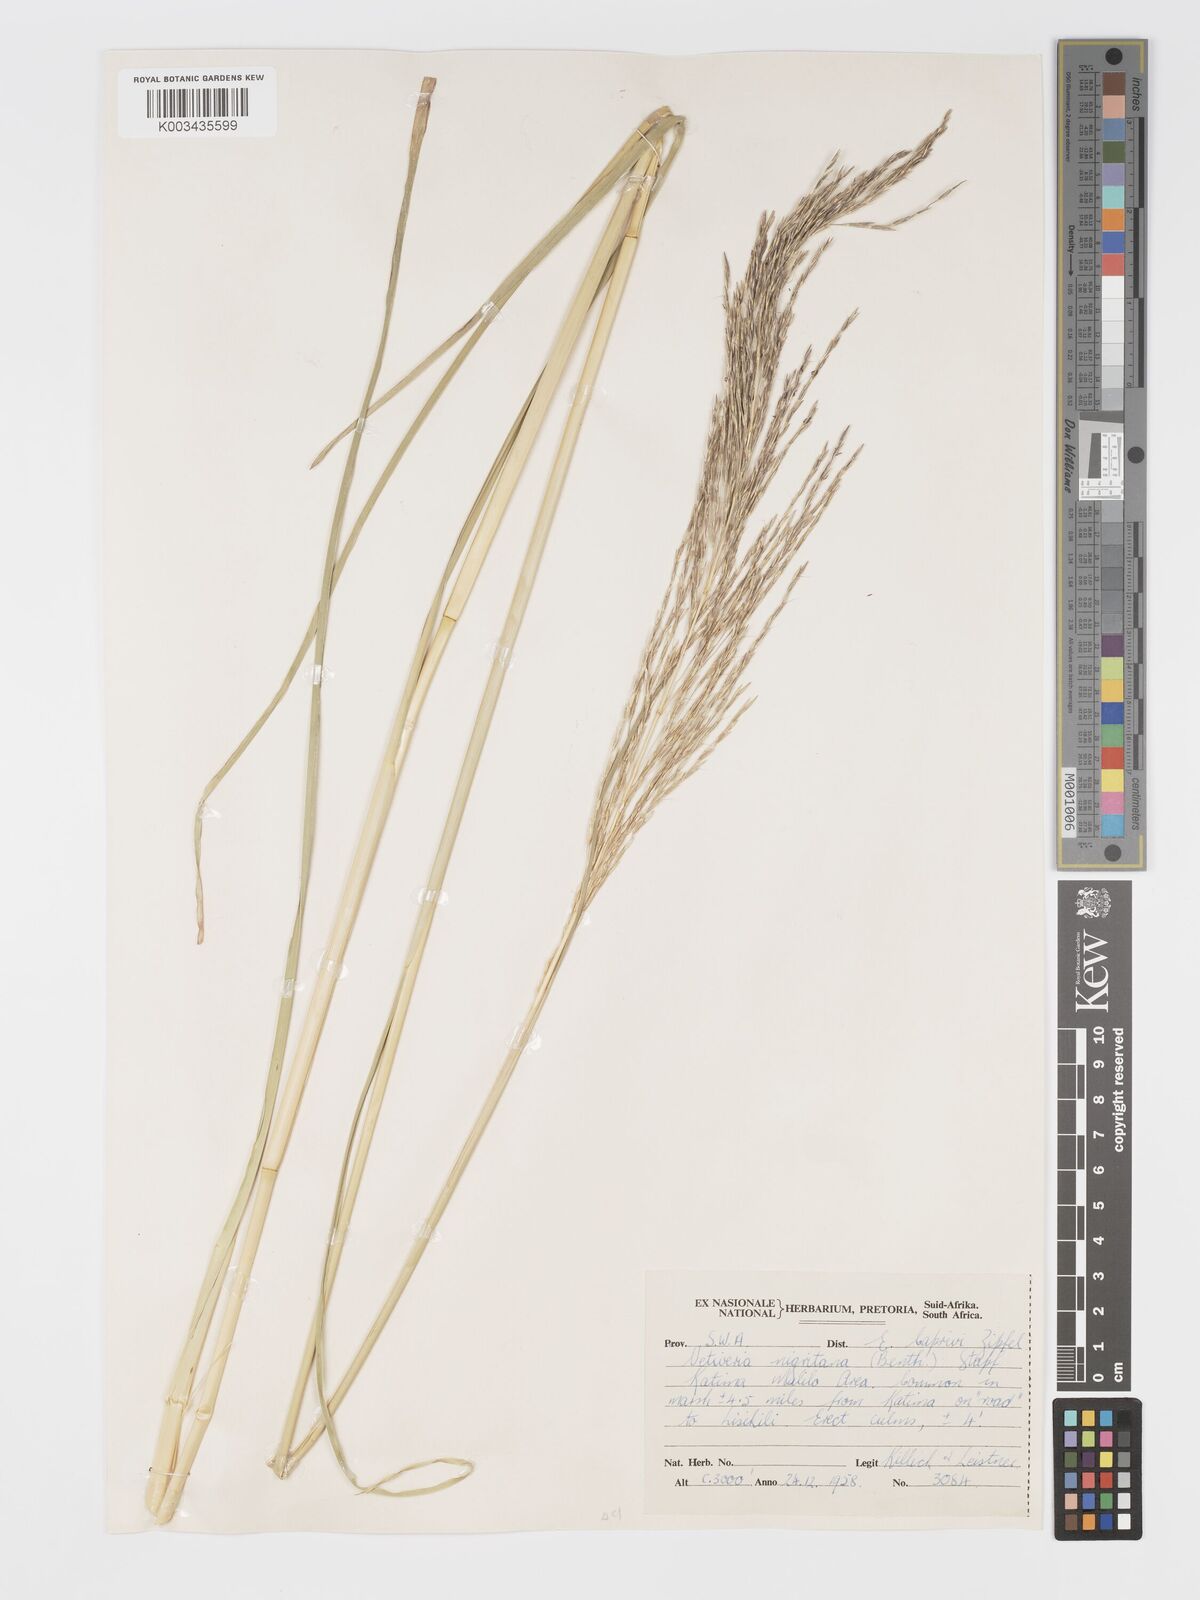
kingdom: Plantae
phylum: Tracheophyta
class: Liliopsida
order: Poales
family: Poaceae
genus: Chrysopogon
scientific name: Chrysopogon nigritanus
